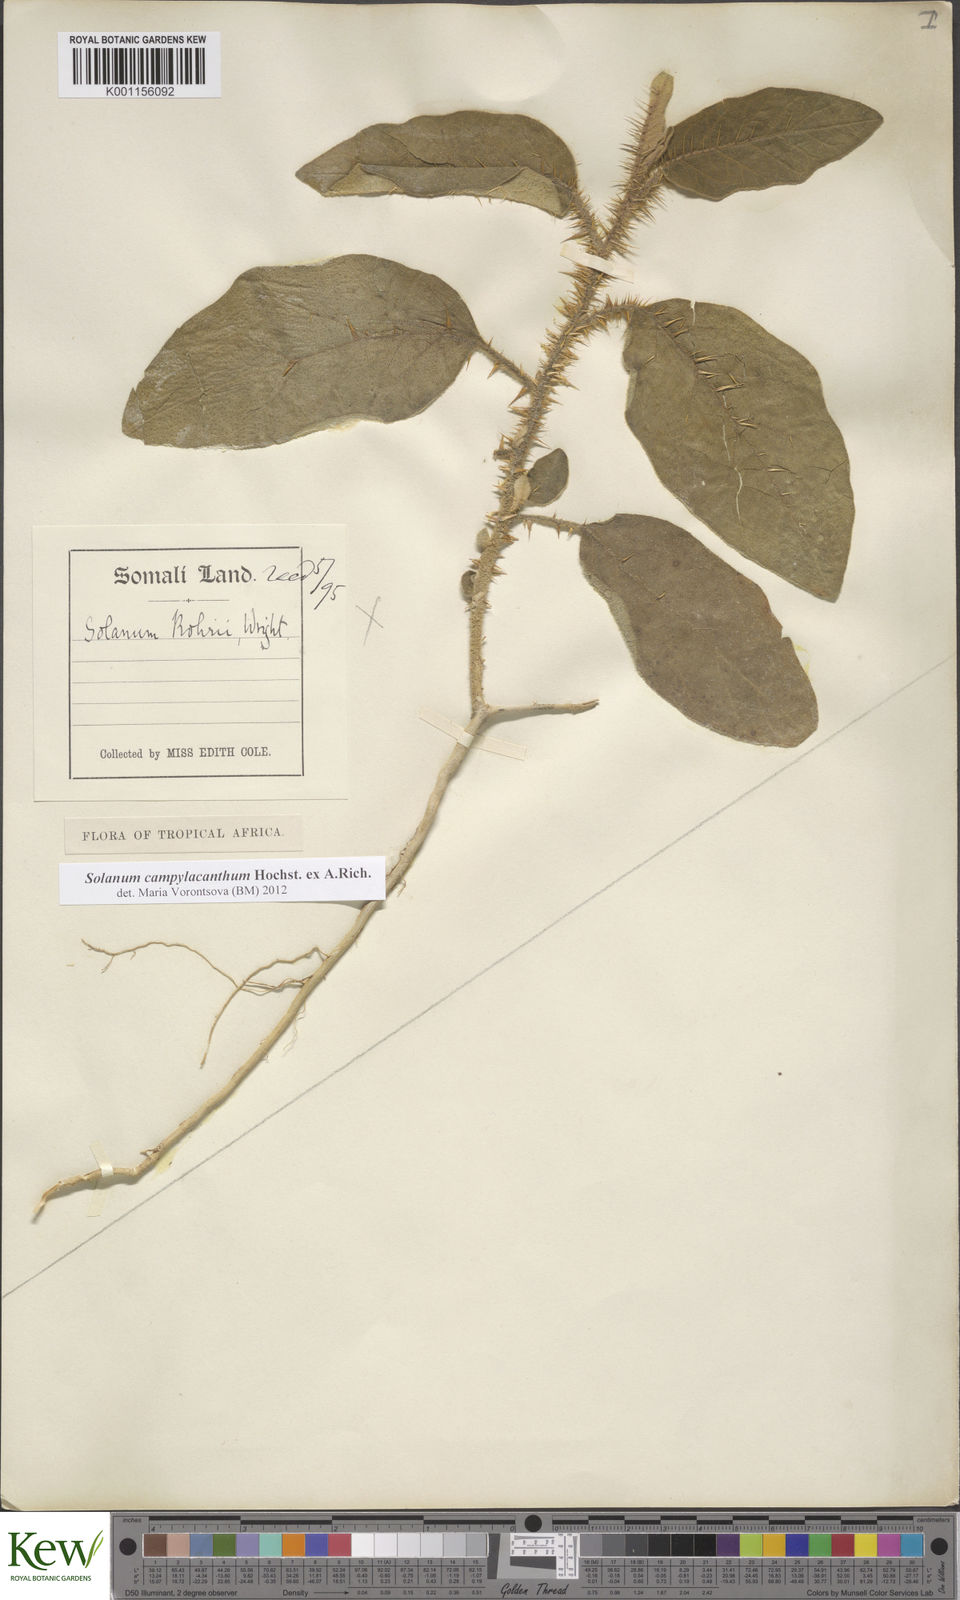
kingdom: Plantae
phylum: Tracheophyta
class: Magnoliopsida
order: Solanales
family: Solanaceae
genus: Solanum
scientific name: Solanum campylacanthum
